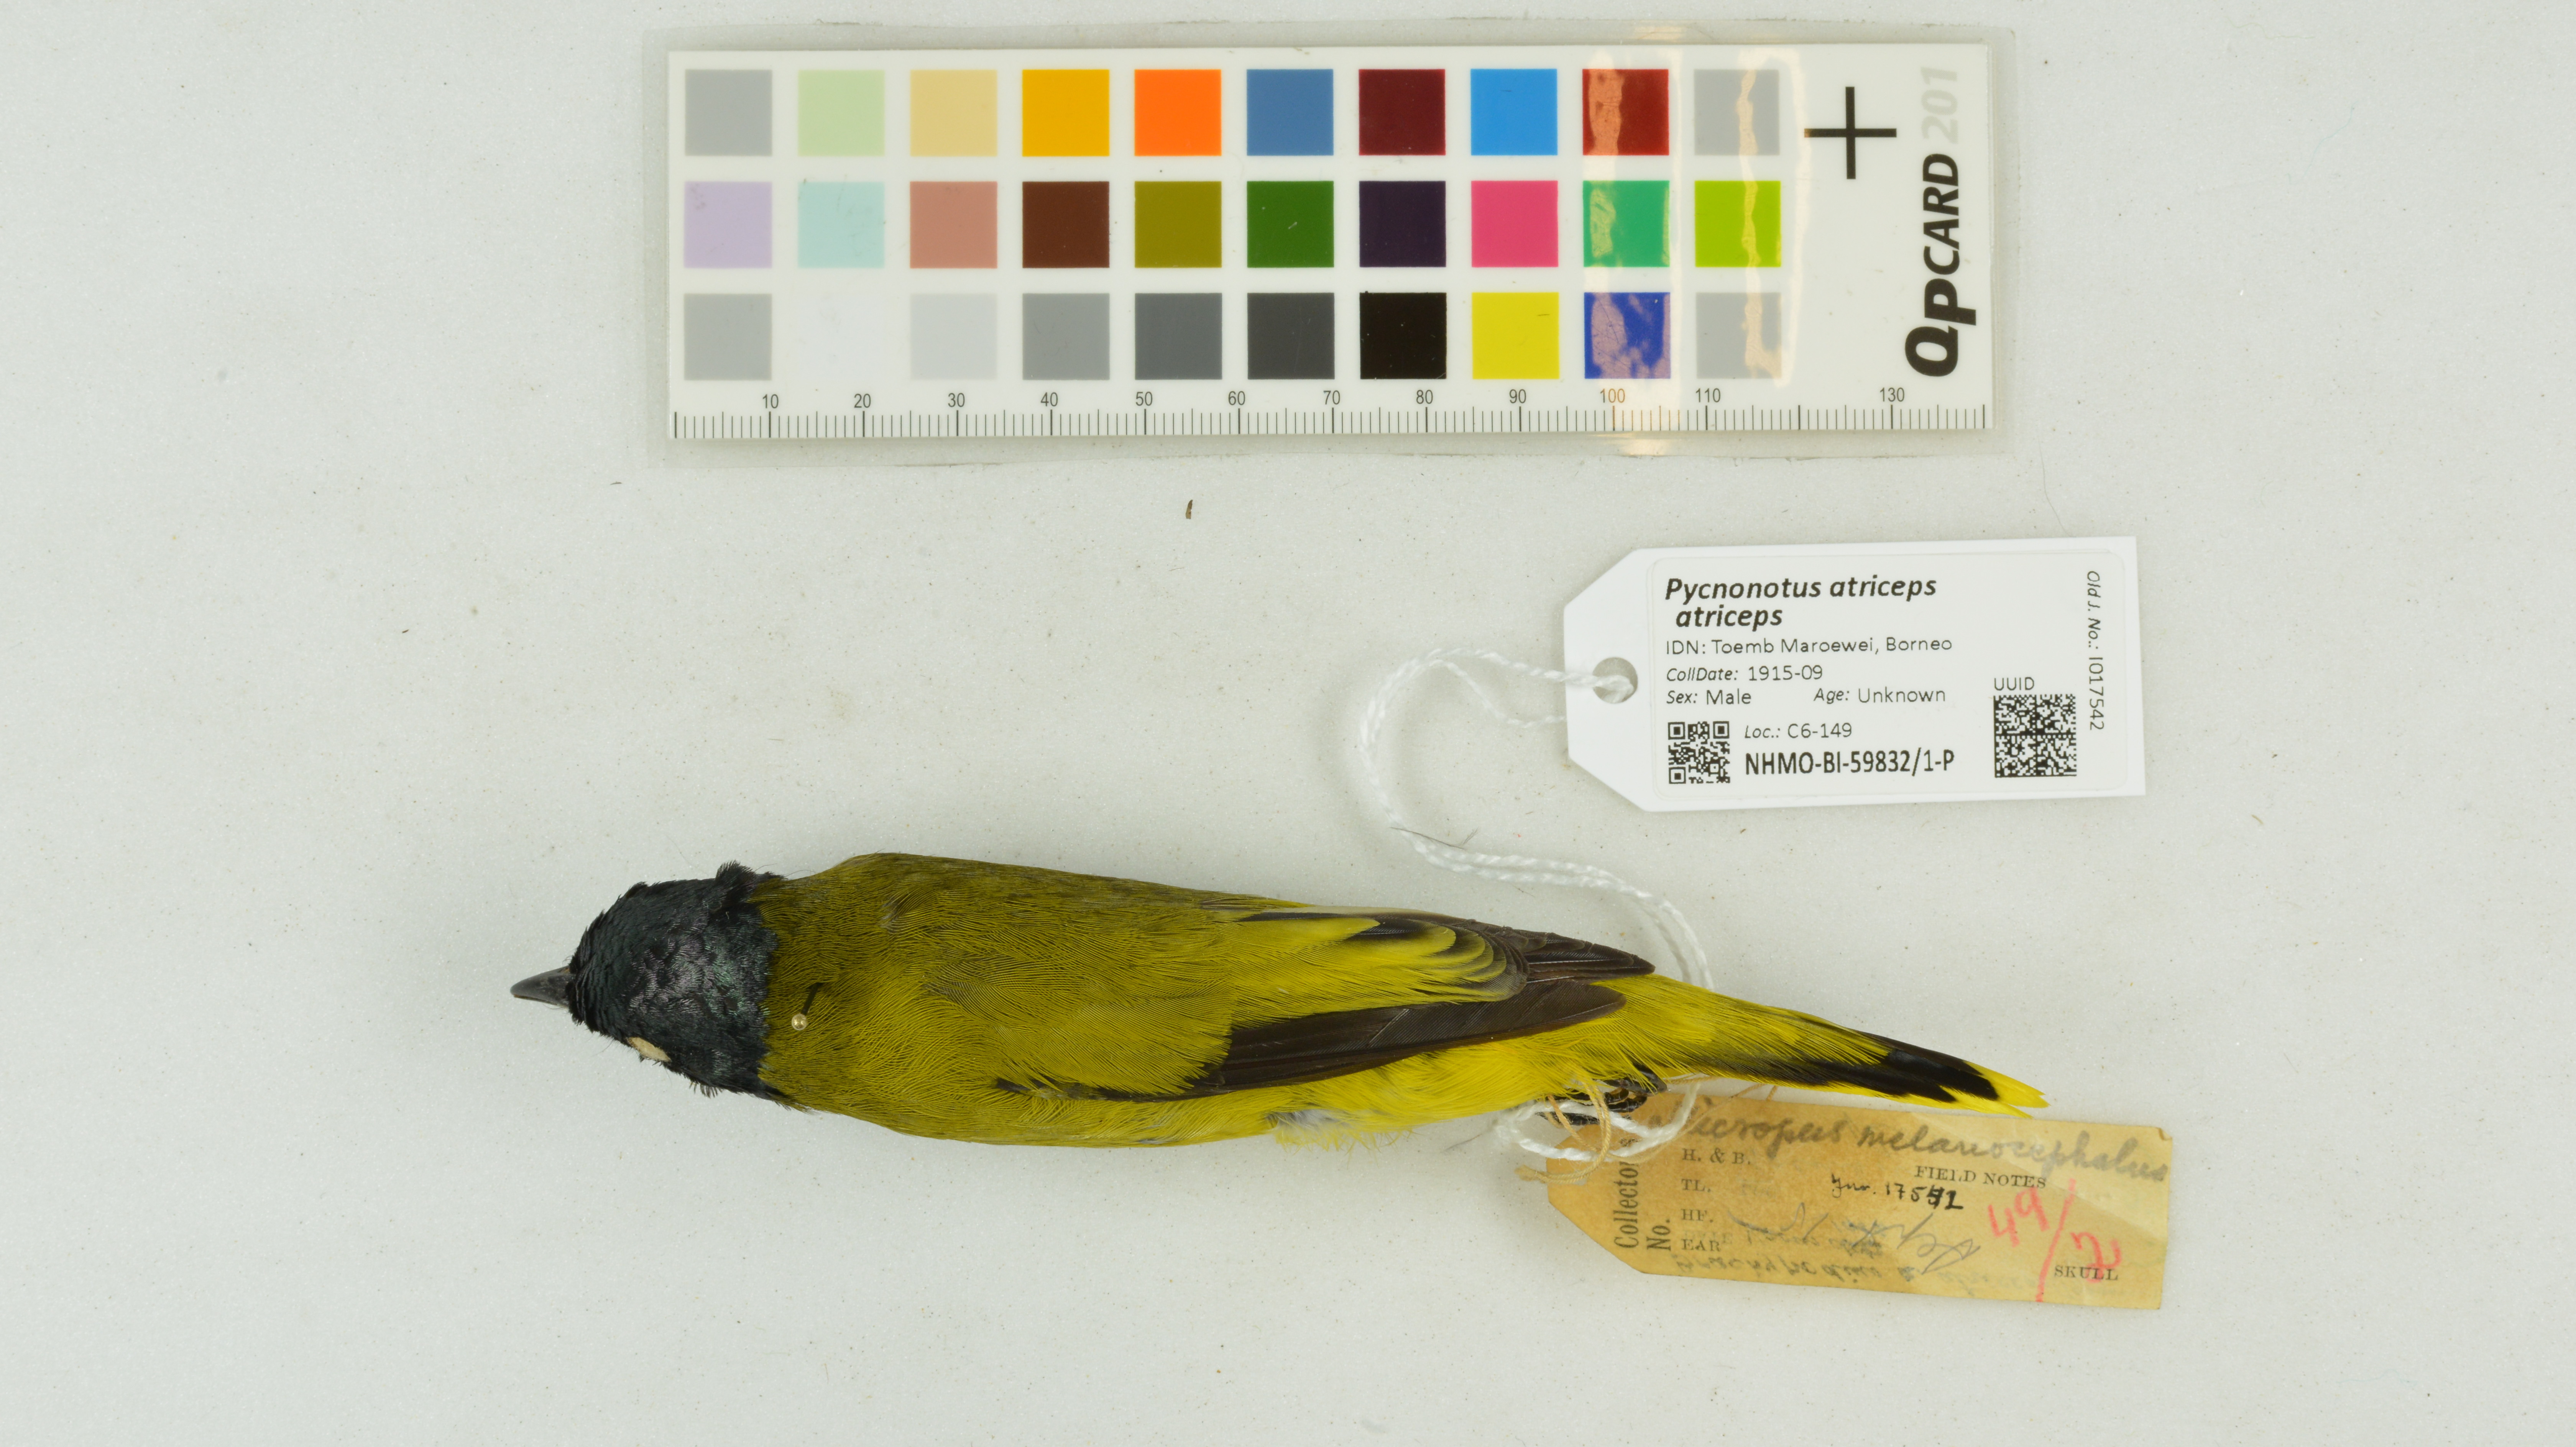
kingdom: Animalia
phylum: Chordata
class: Aves
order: Passeriformes
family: Pycnonotidae
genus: Brachypodius
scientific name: Brachypodius melanocephalos
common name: Black-headed bulbul
